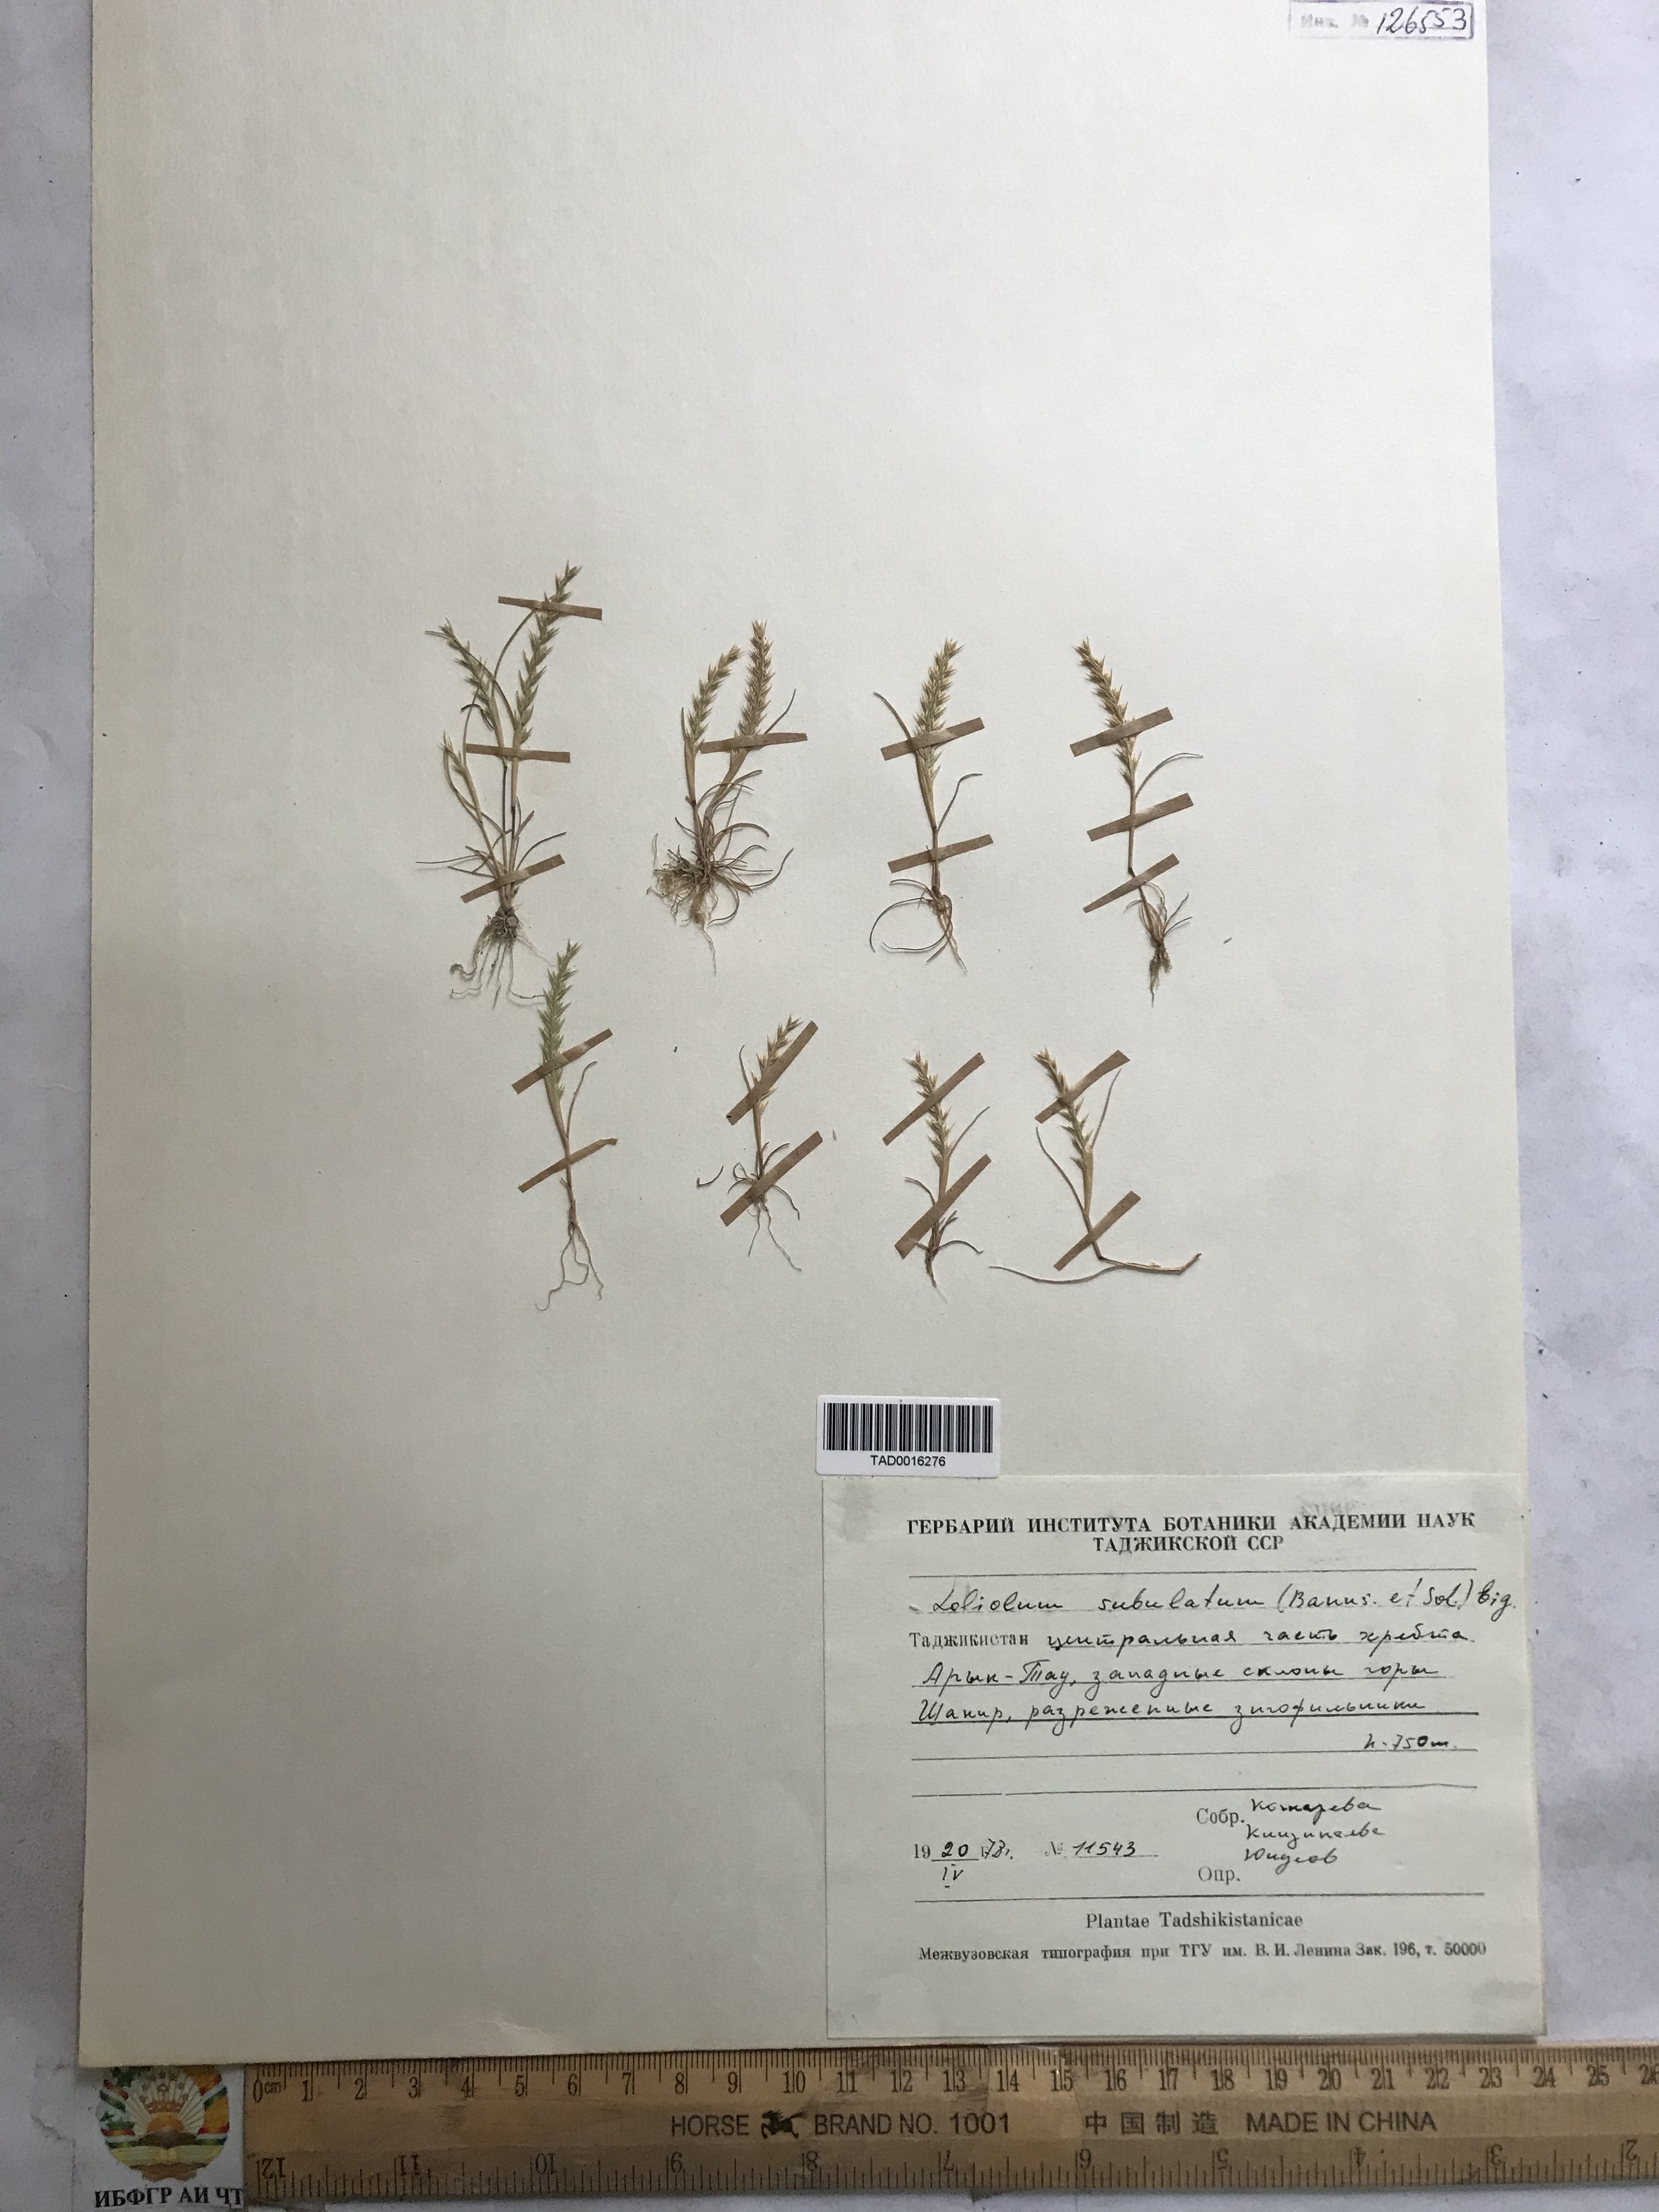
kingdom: Plantae
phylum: Tracheophyta
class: Liliopsida
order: Poales
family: Poaceae
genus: Festuca
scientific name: Festuca orientalis
